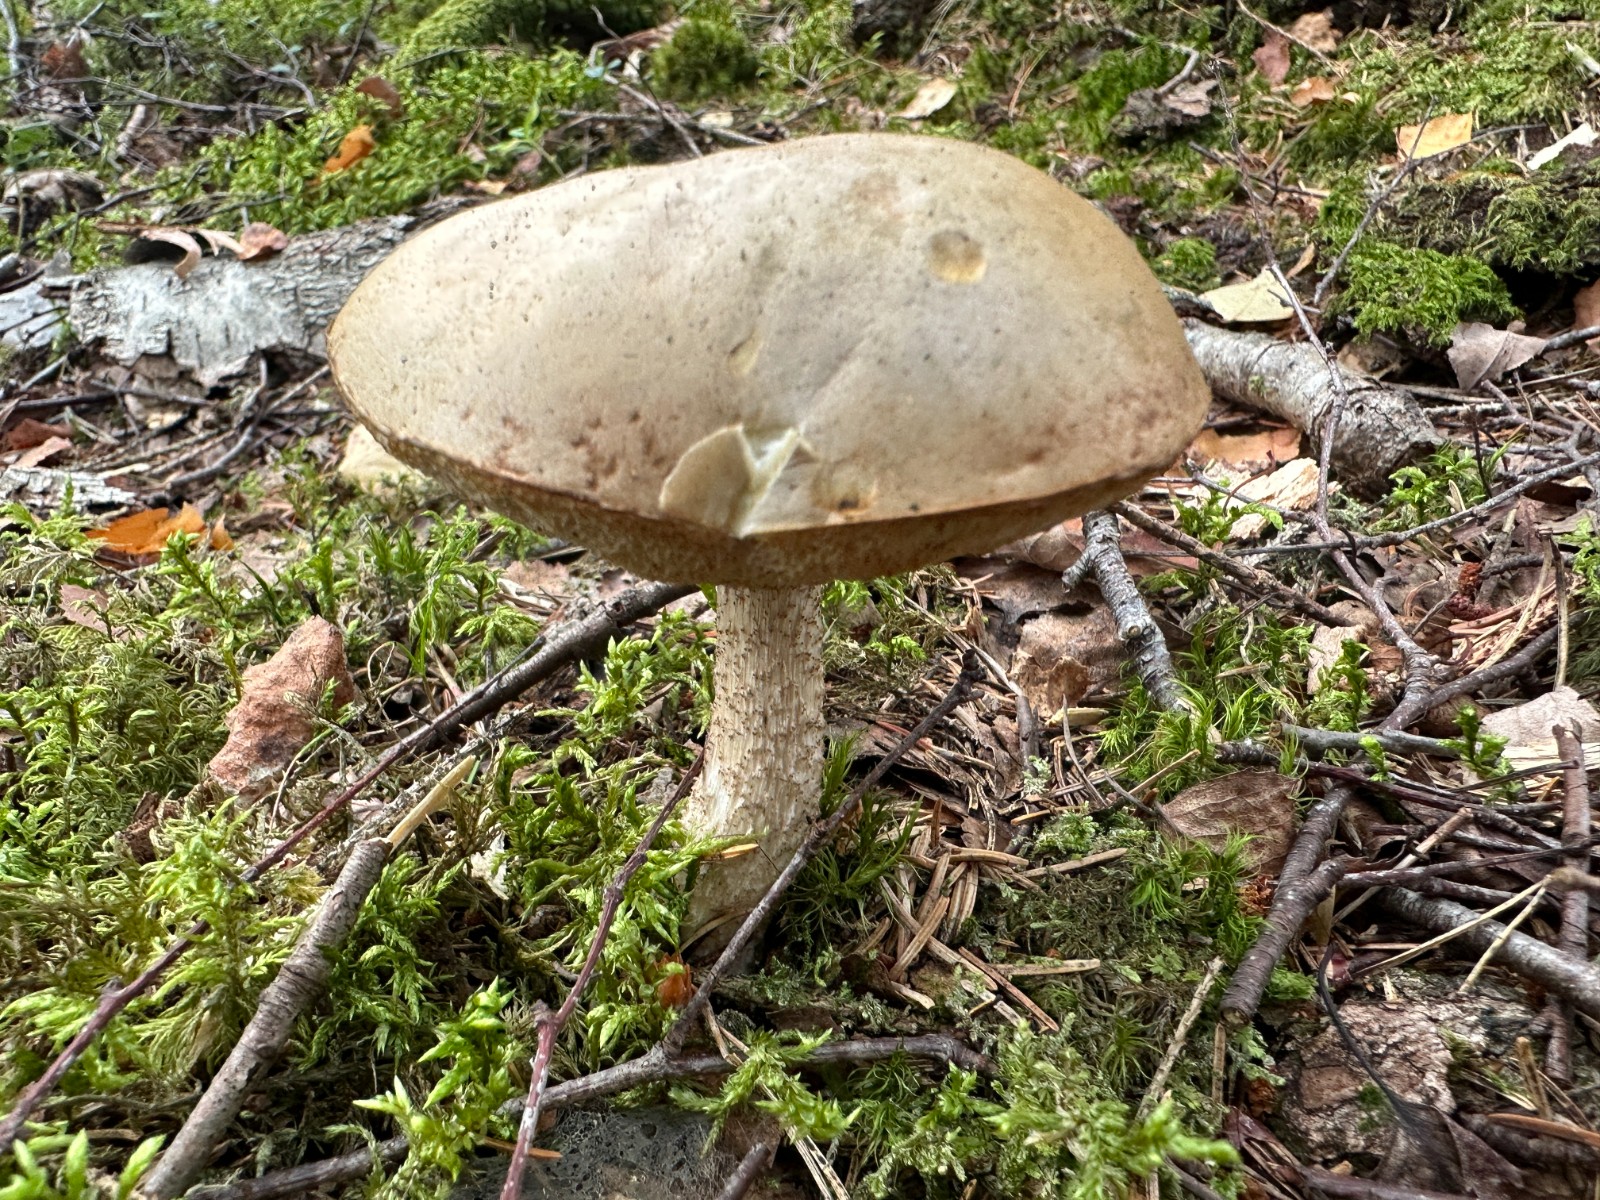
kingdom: Fungi
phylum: Basidiomycota
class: Agaricomycetes
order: Boletales
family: Boletaceae
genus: Leccinum
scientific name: Leccinum scabrum
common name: brun skælrørhat
